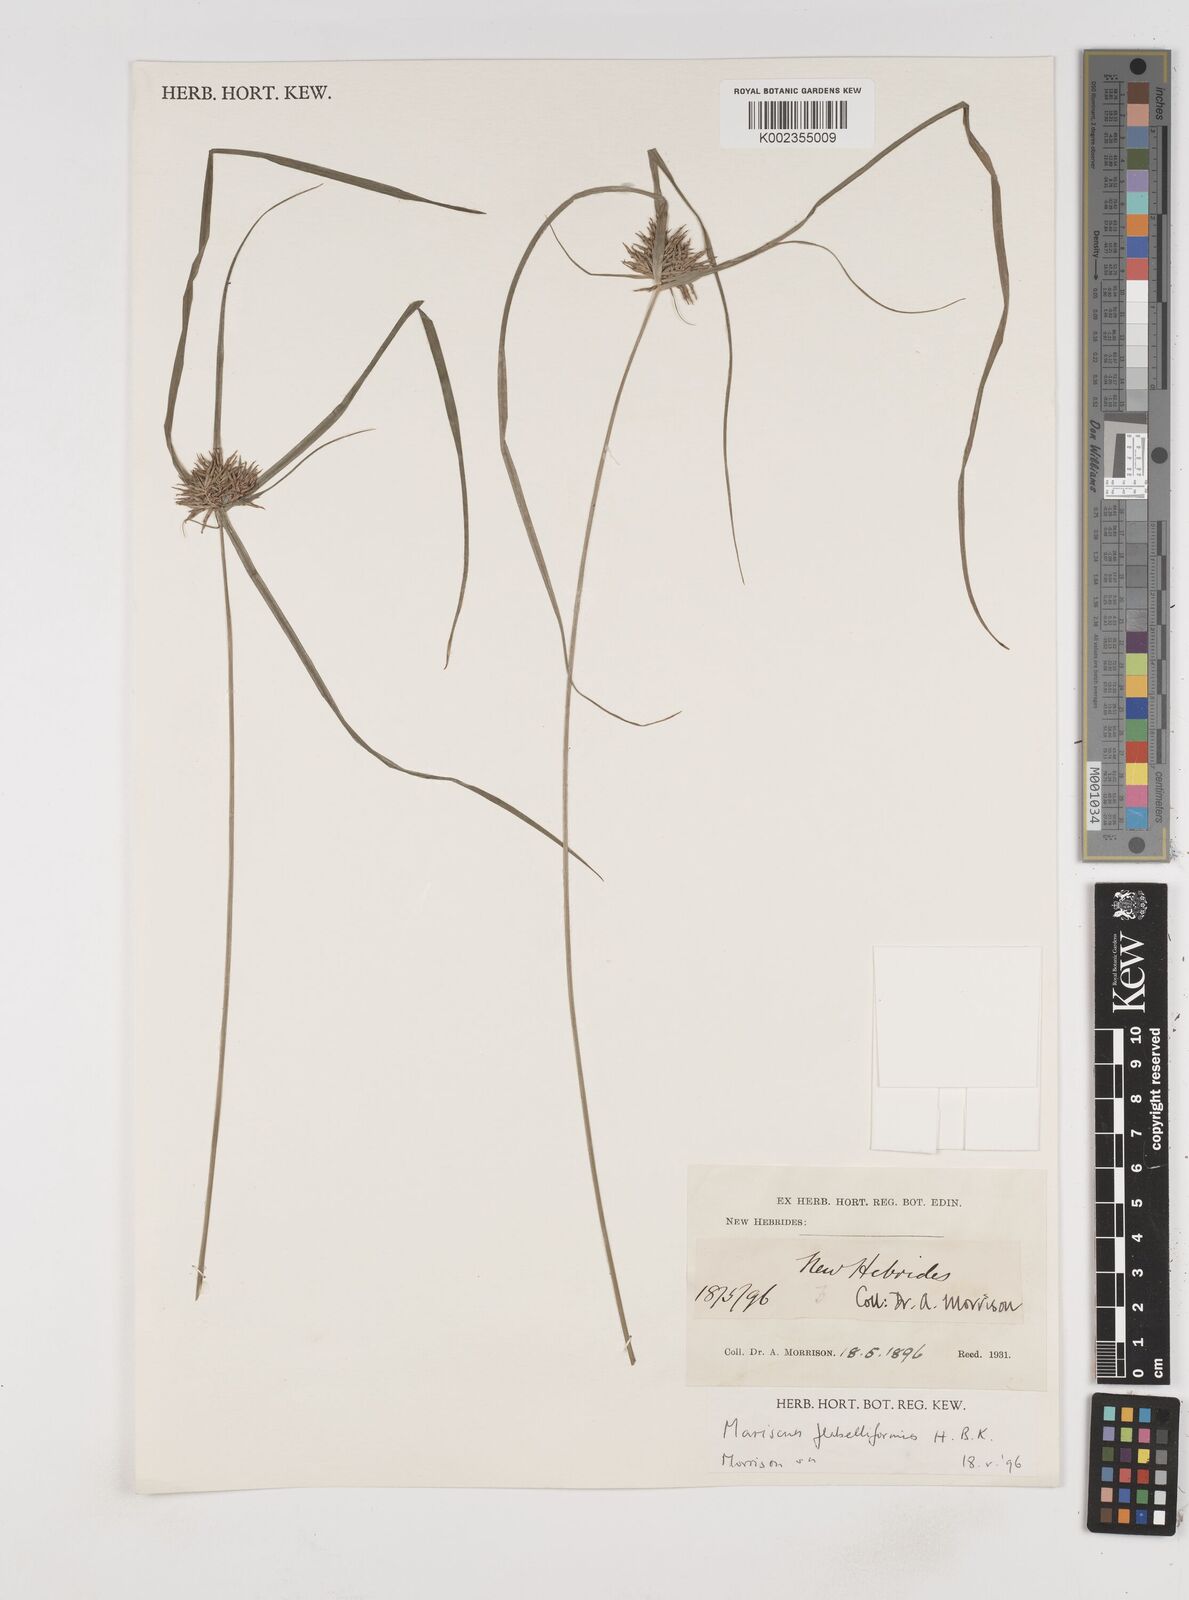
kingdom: Plantae
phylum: Tracheophyta
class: Liliopsida
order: Poales
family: Cyperaceae
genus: Cyperus
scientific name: Cyperus tenuis
